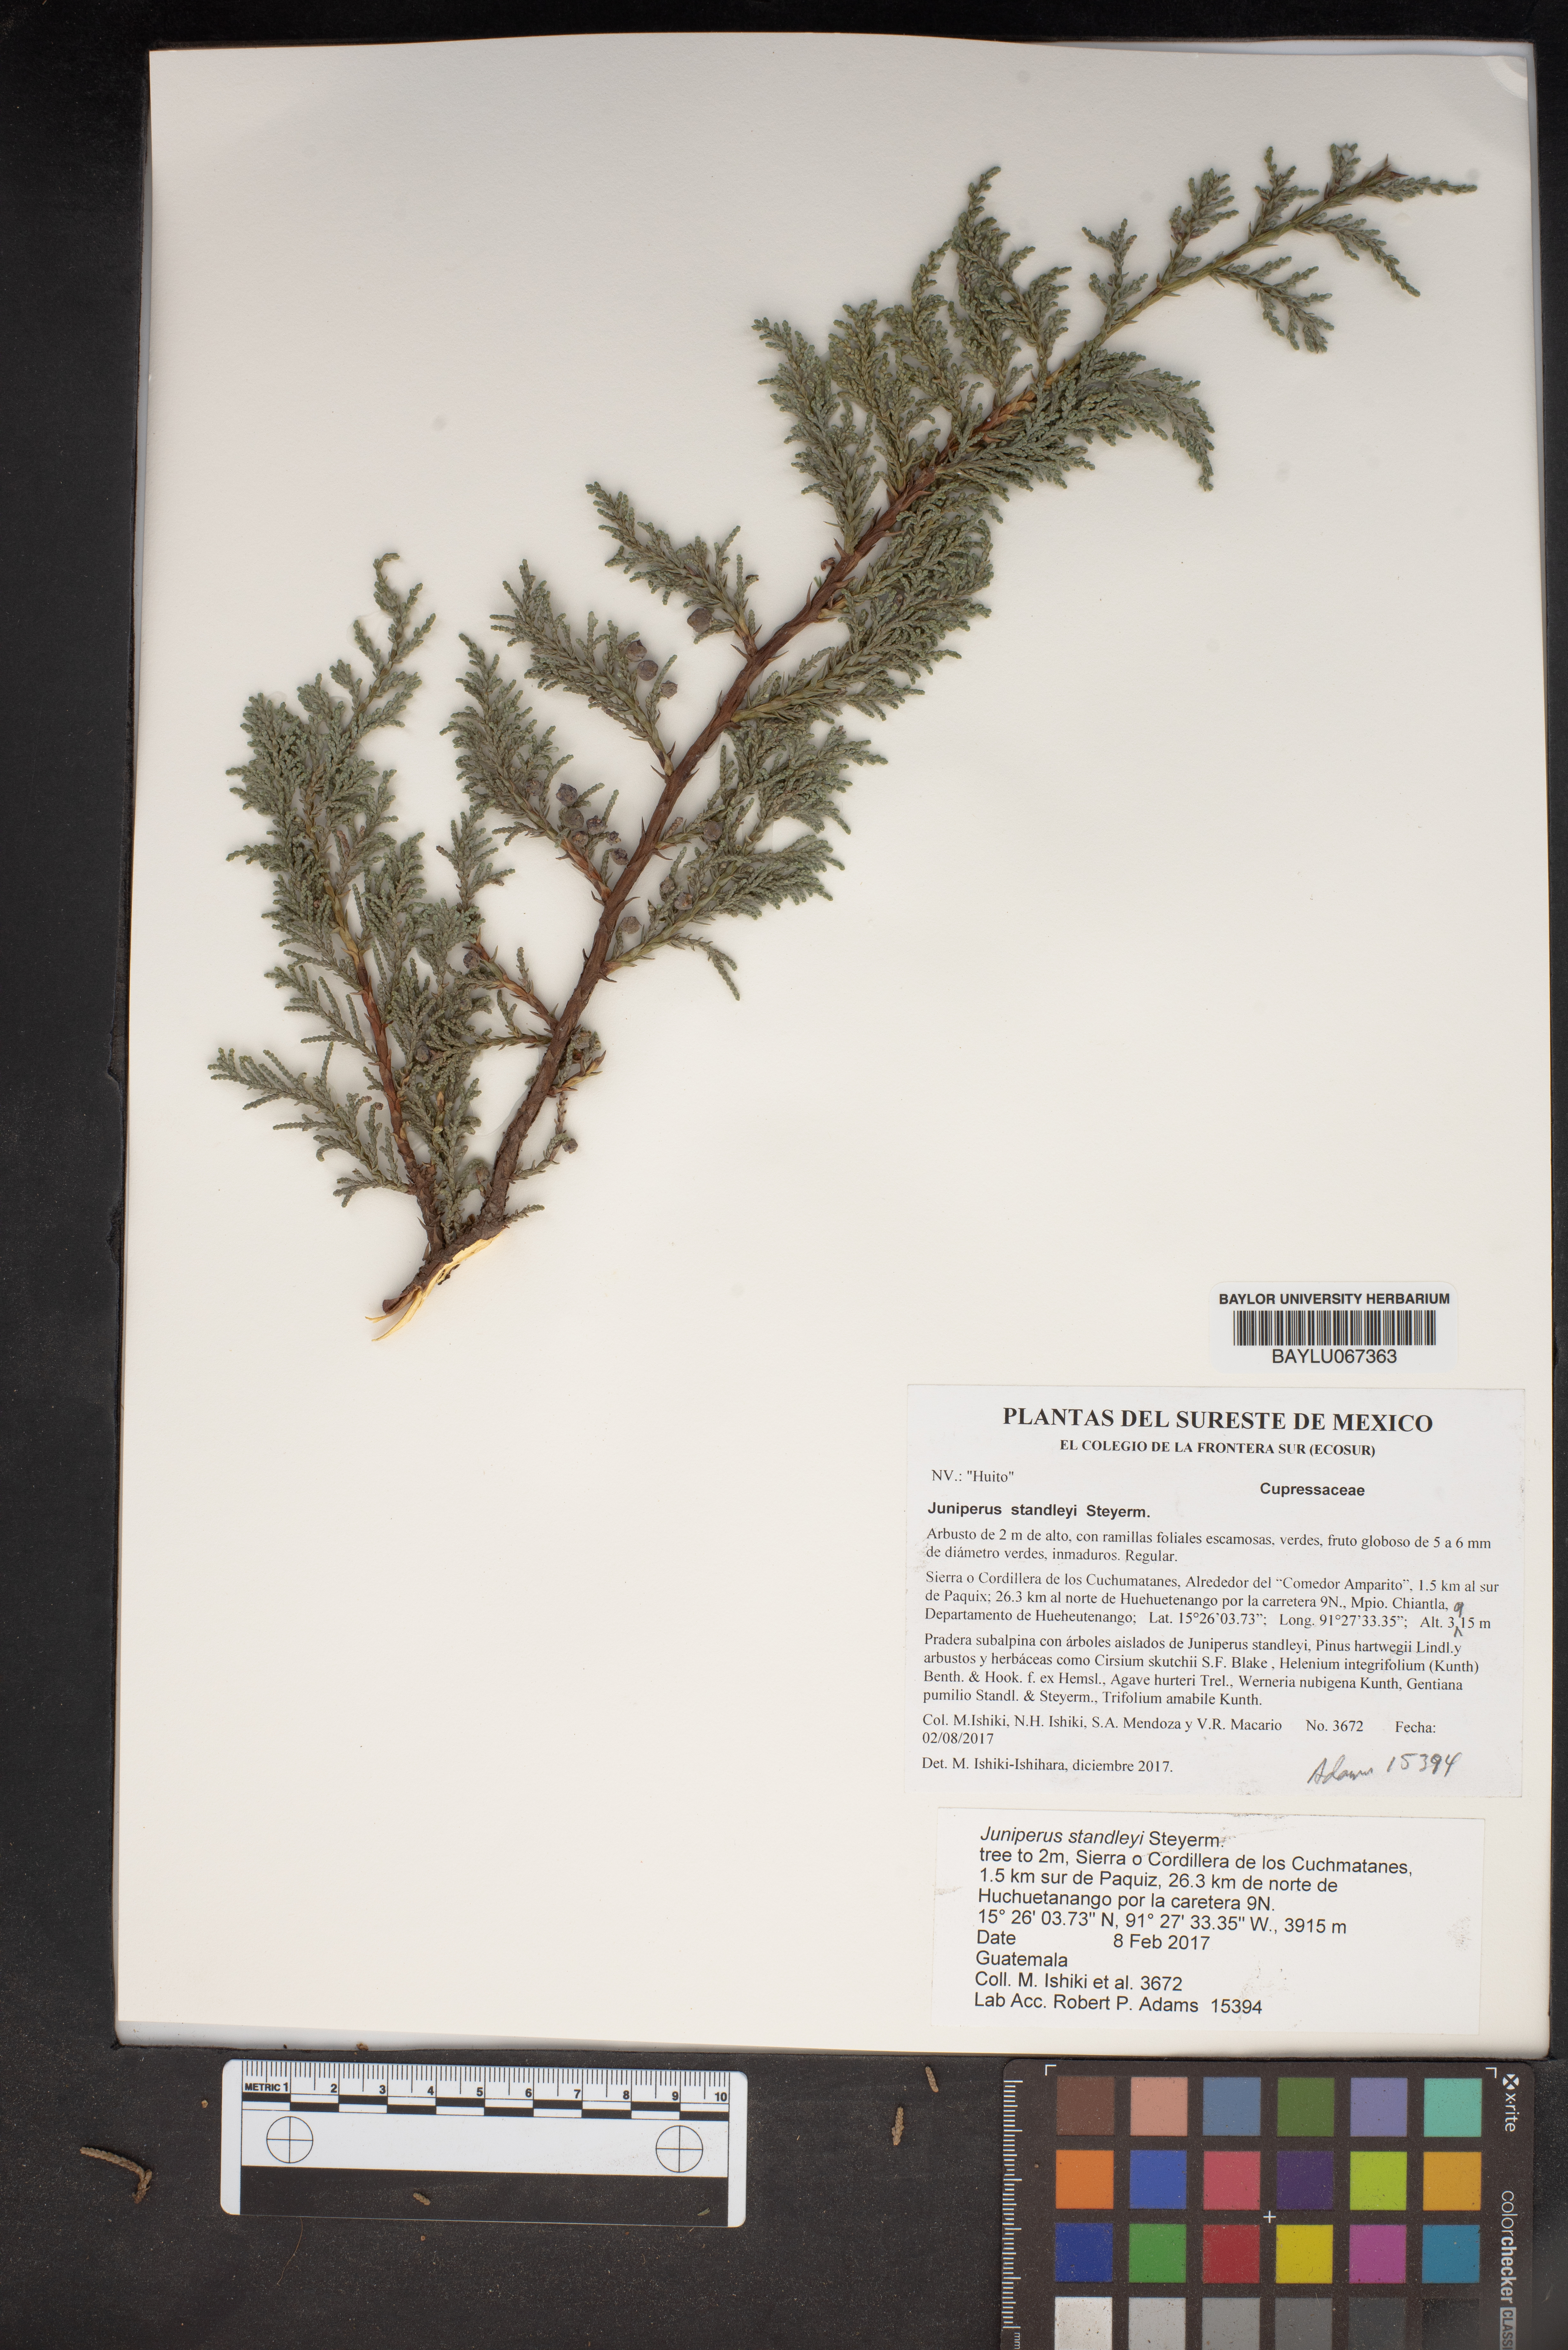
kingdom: Plantae
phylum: Tracheophyta
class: Pinopsida
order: Pinales
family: Cupressaceae
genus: Juniperus
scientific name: Juniperus standleyi
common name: Standley juniper
